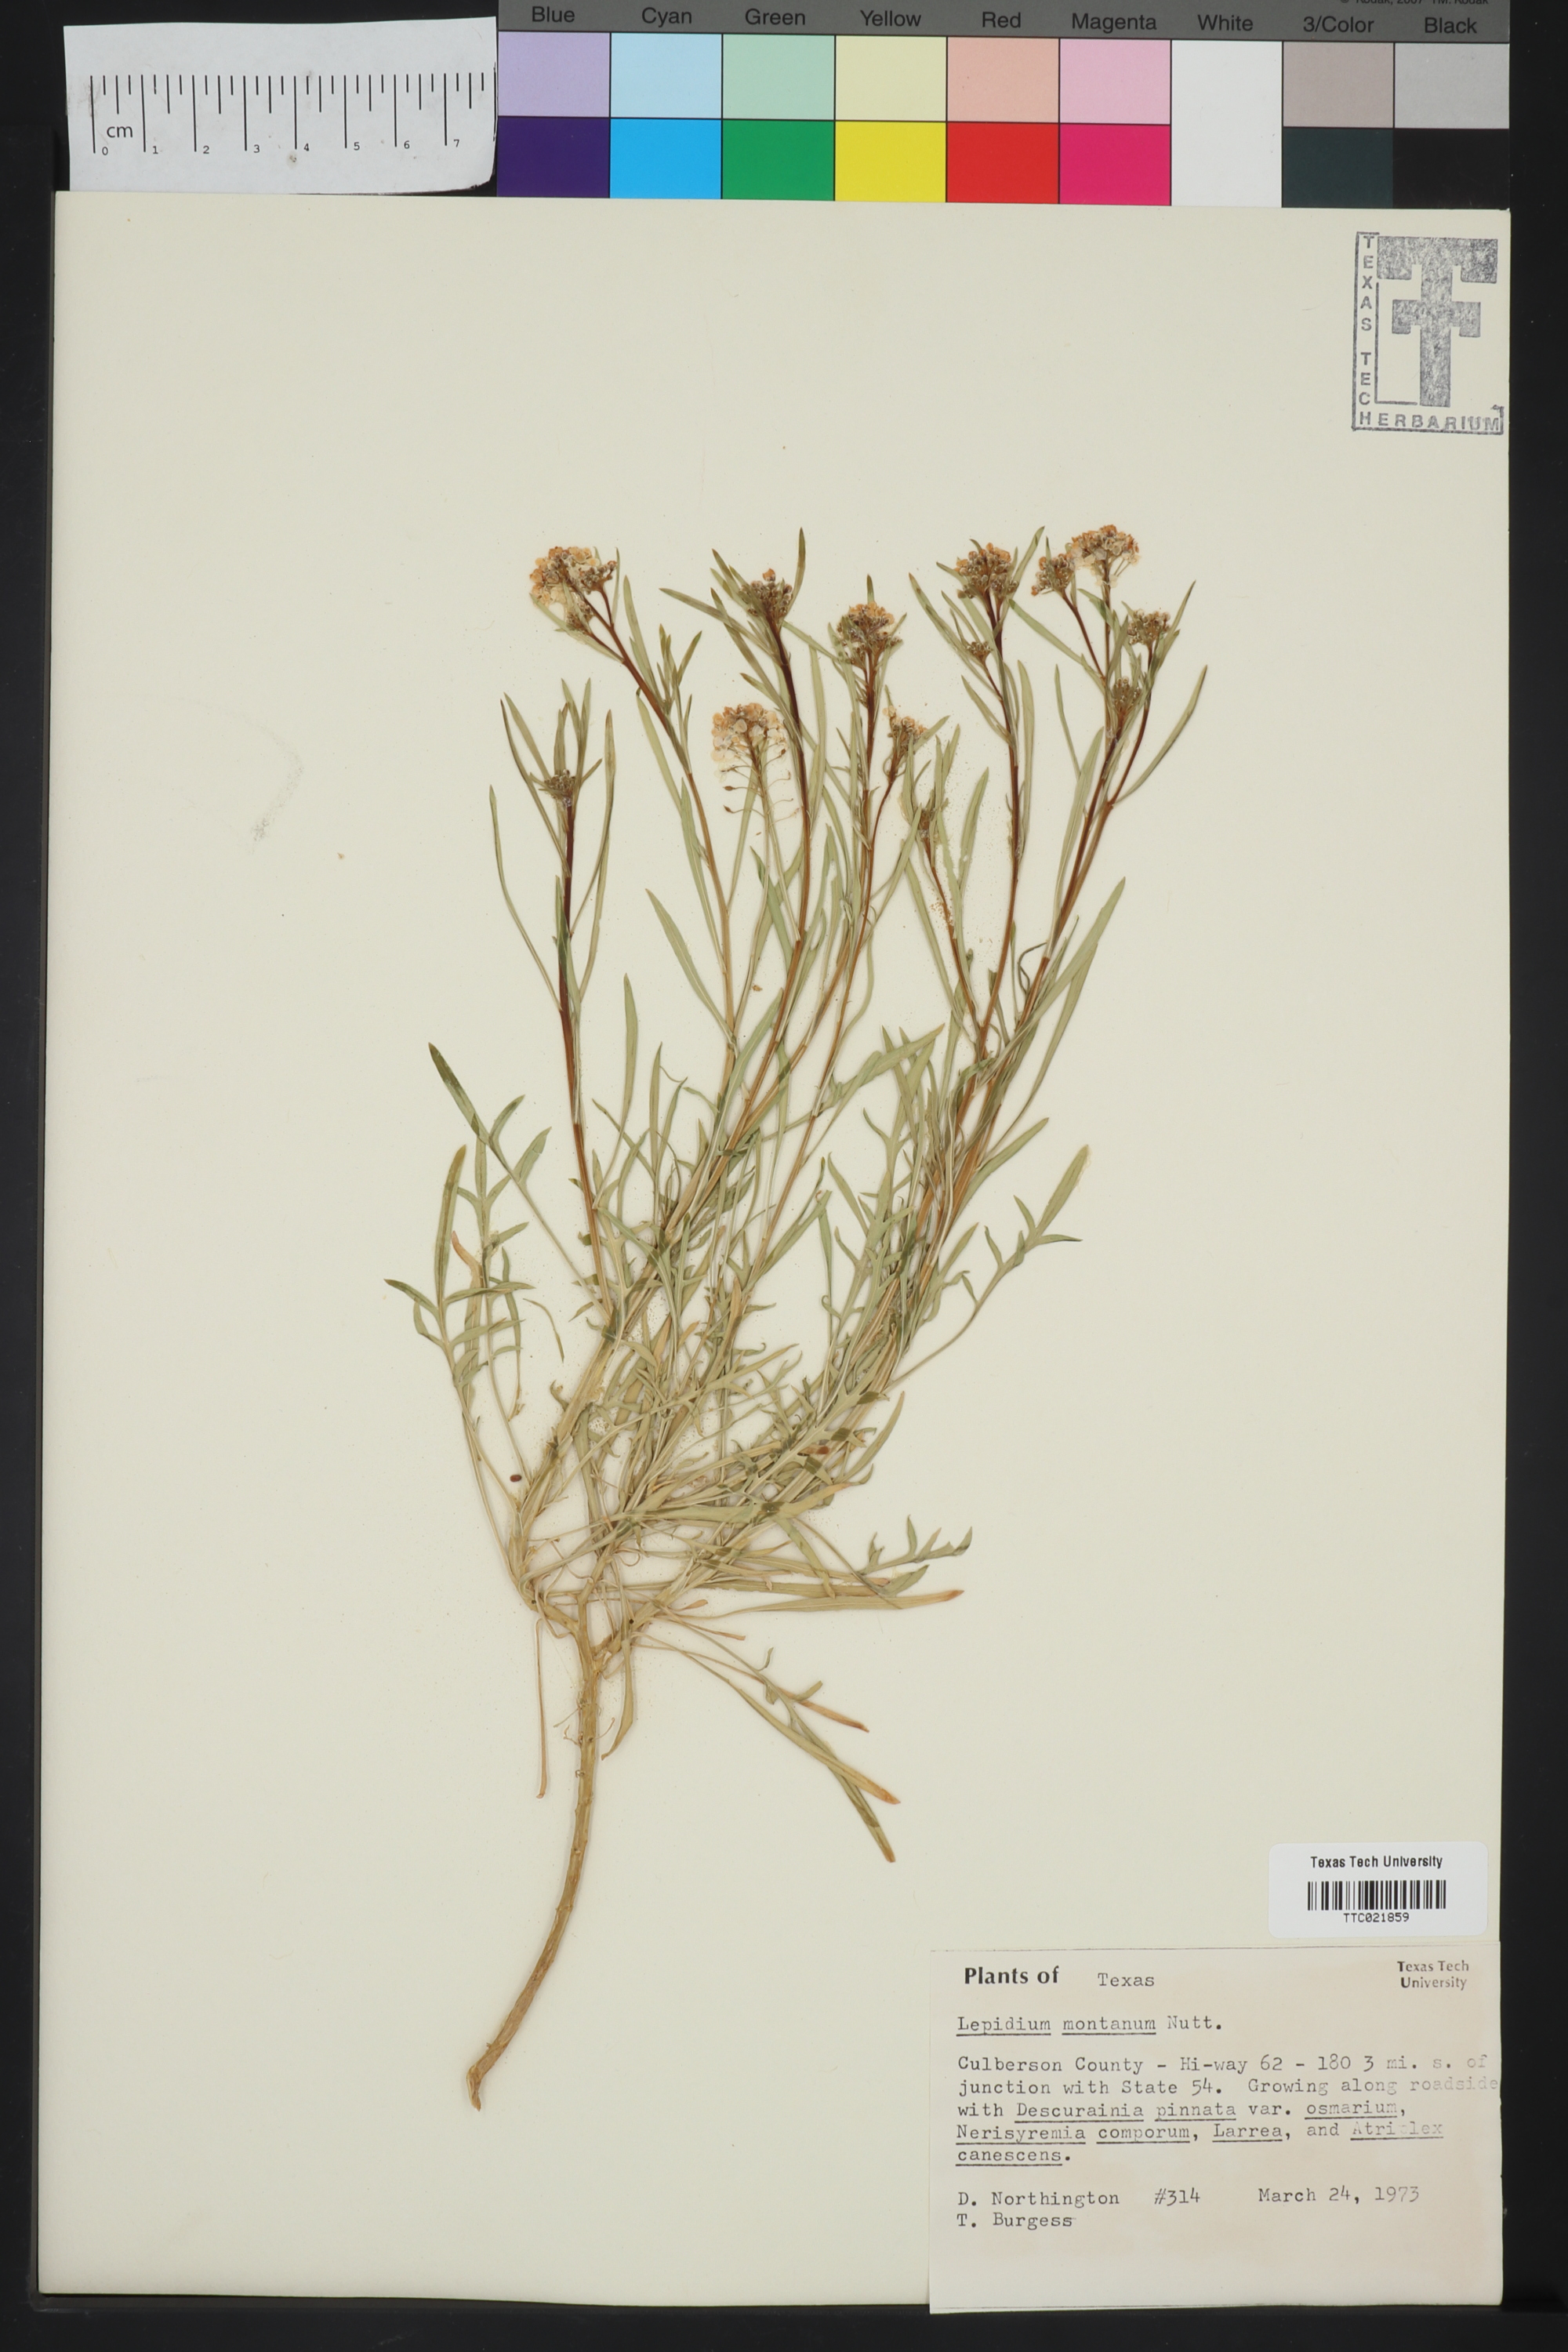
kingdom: Plantae
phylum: Tracheophyta
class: Magnoliopsida
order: Brassicales
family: Brassicaceae
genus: Lepidium
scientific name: Lepidium montanum
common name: Mountain pepperplant
